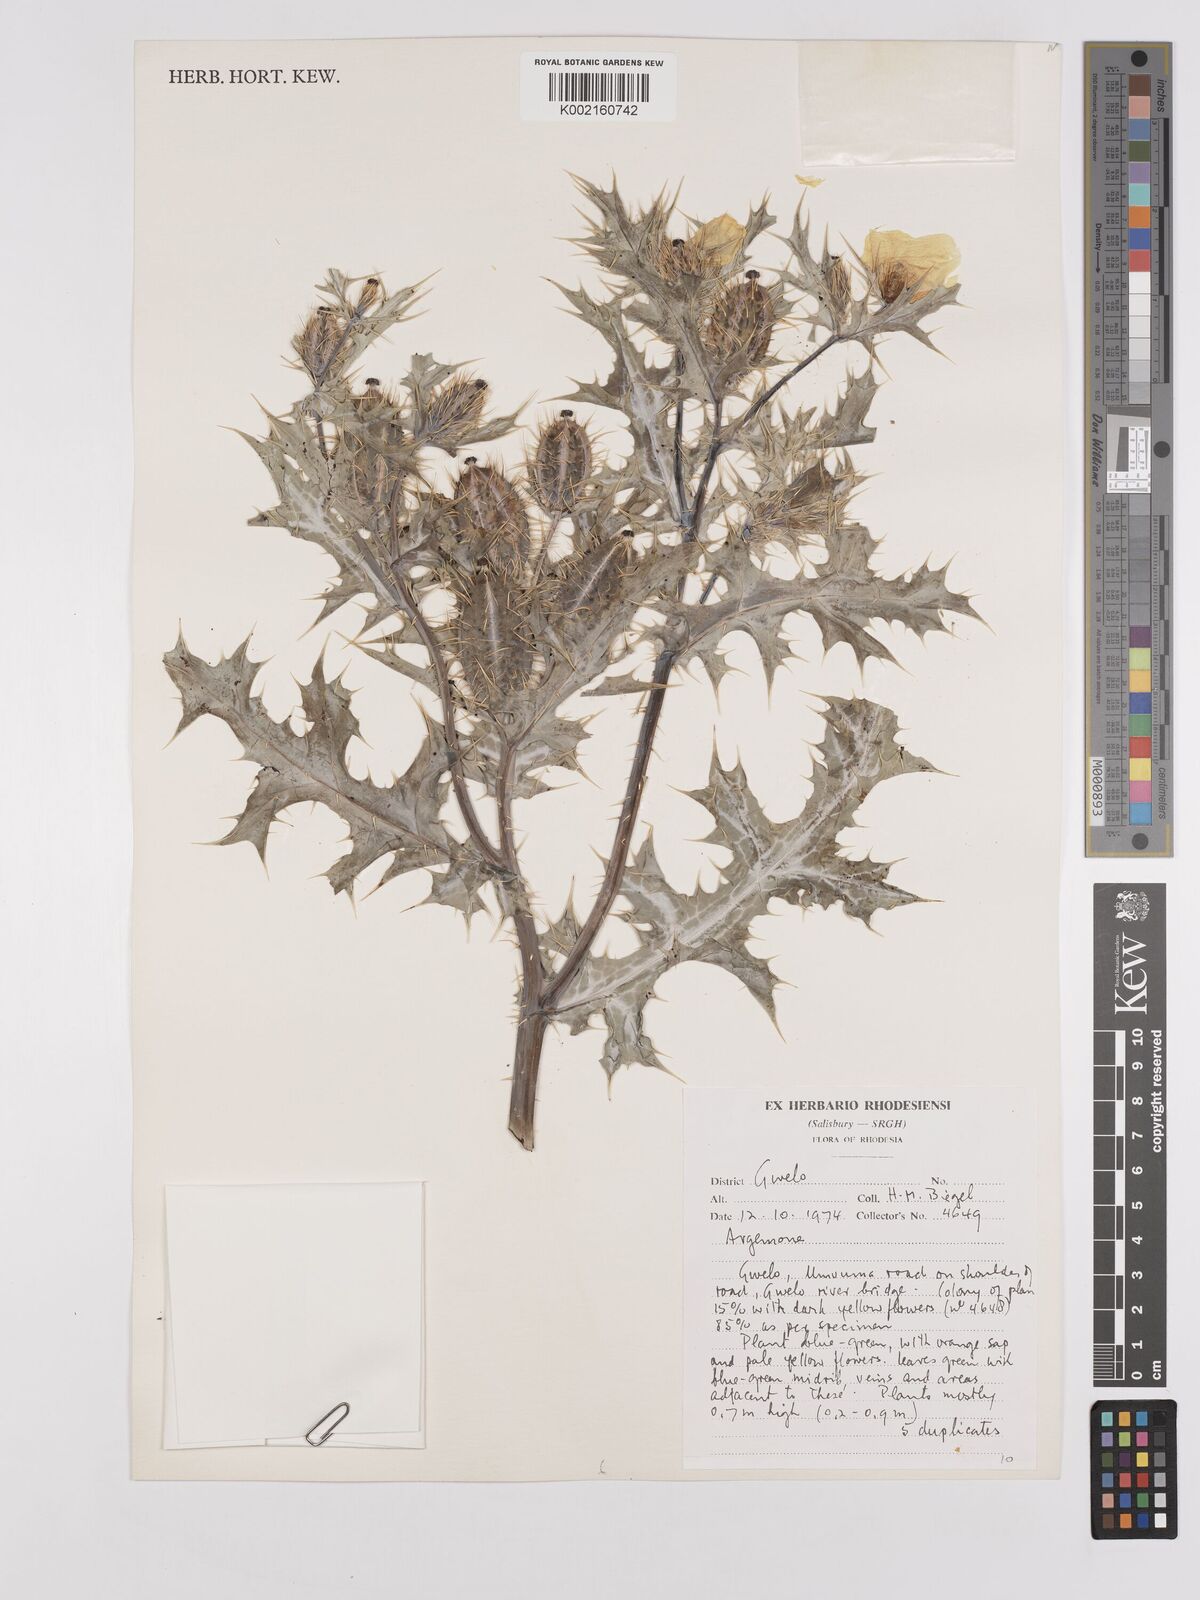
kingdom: Plantae
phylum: Tracheophyta
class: Magnoliopsida
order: Ranunculales
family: Papaveraceae
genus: Argemone
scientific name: Argemone
